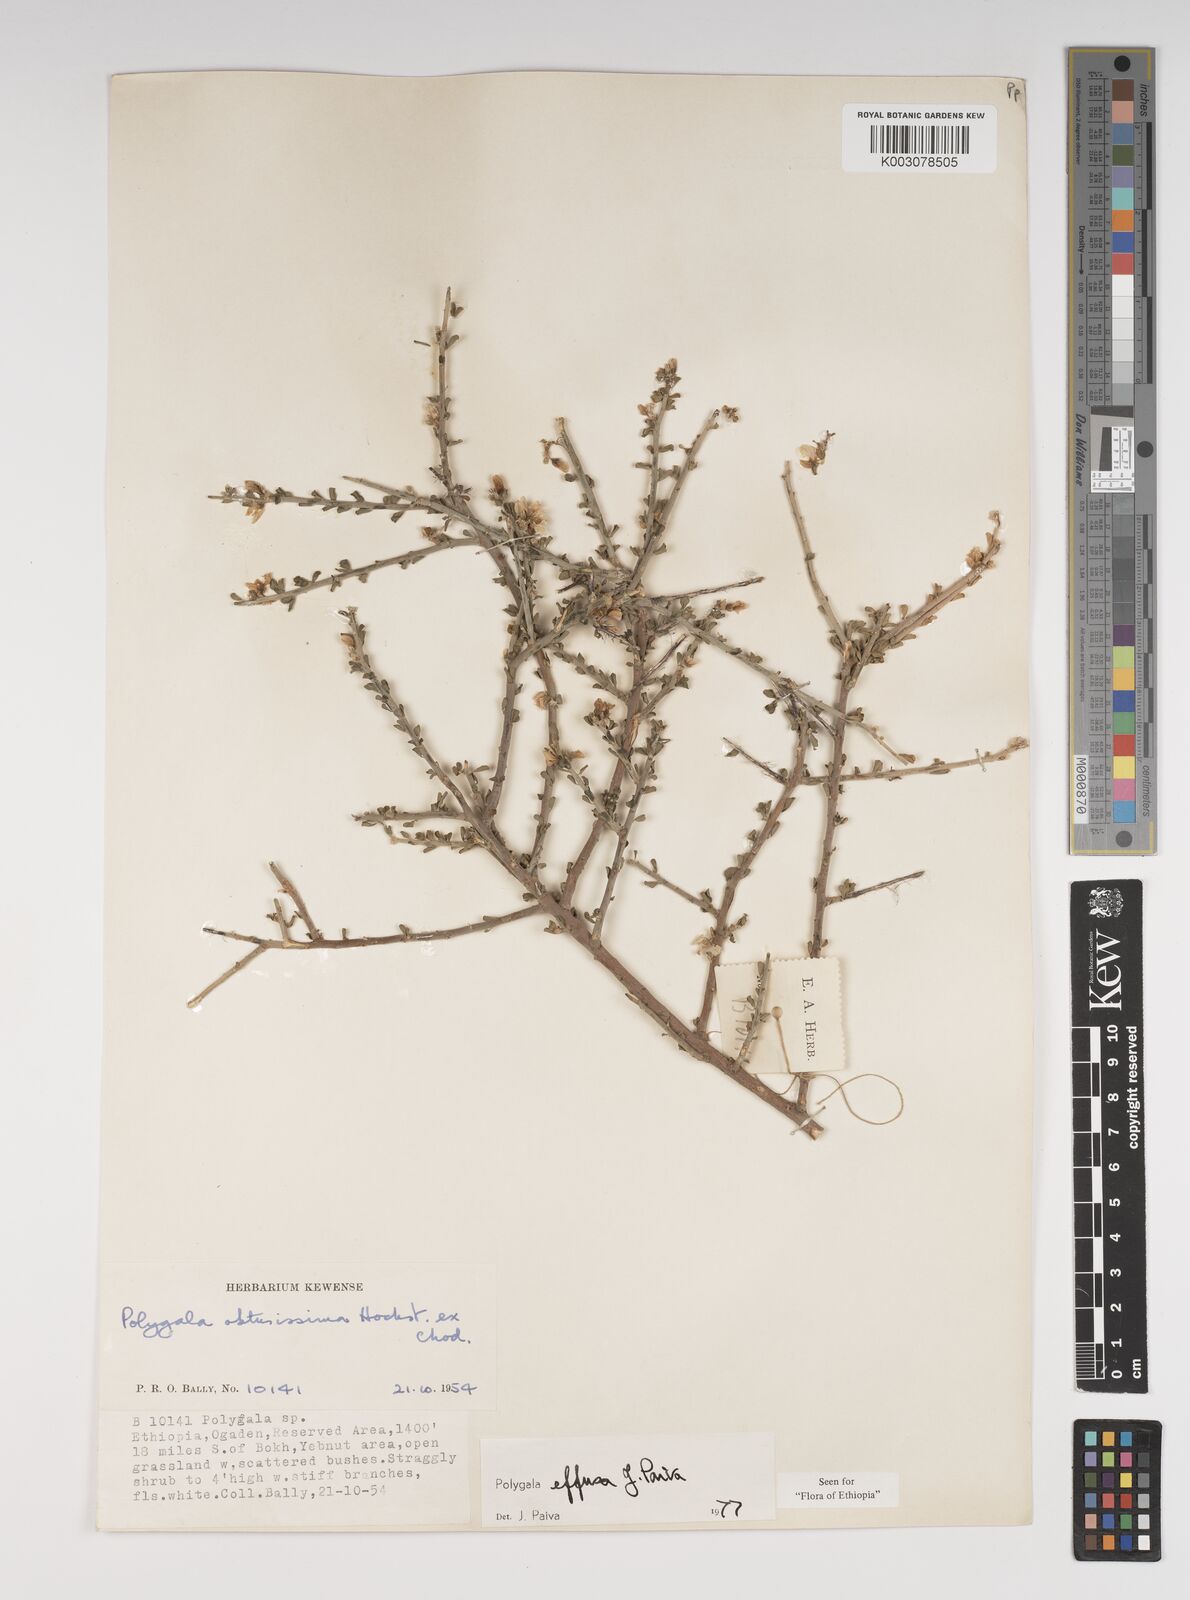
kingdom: Plantae
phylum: Tracheophyta
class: Magnoliopsida
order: Fabales
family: Polygalaceae
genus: Polygala
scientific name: Polygala effusa
